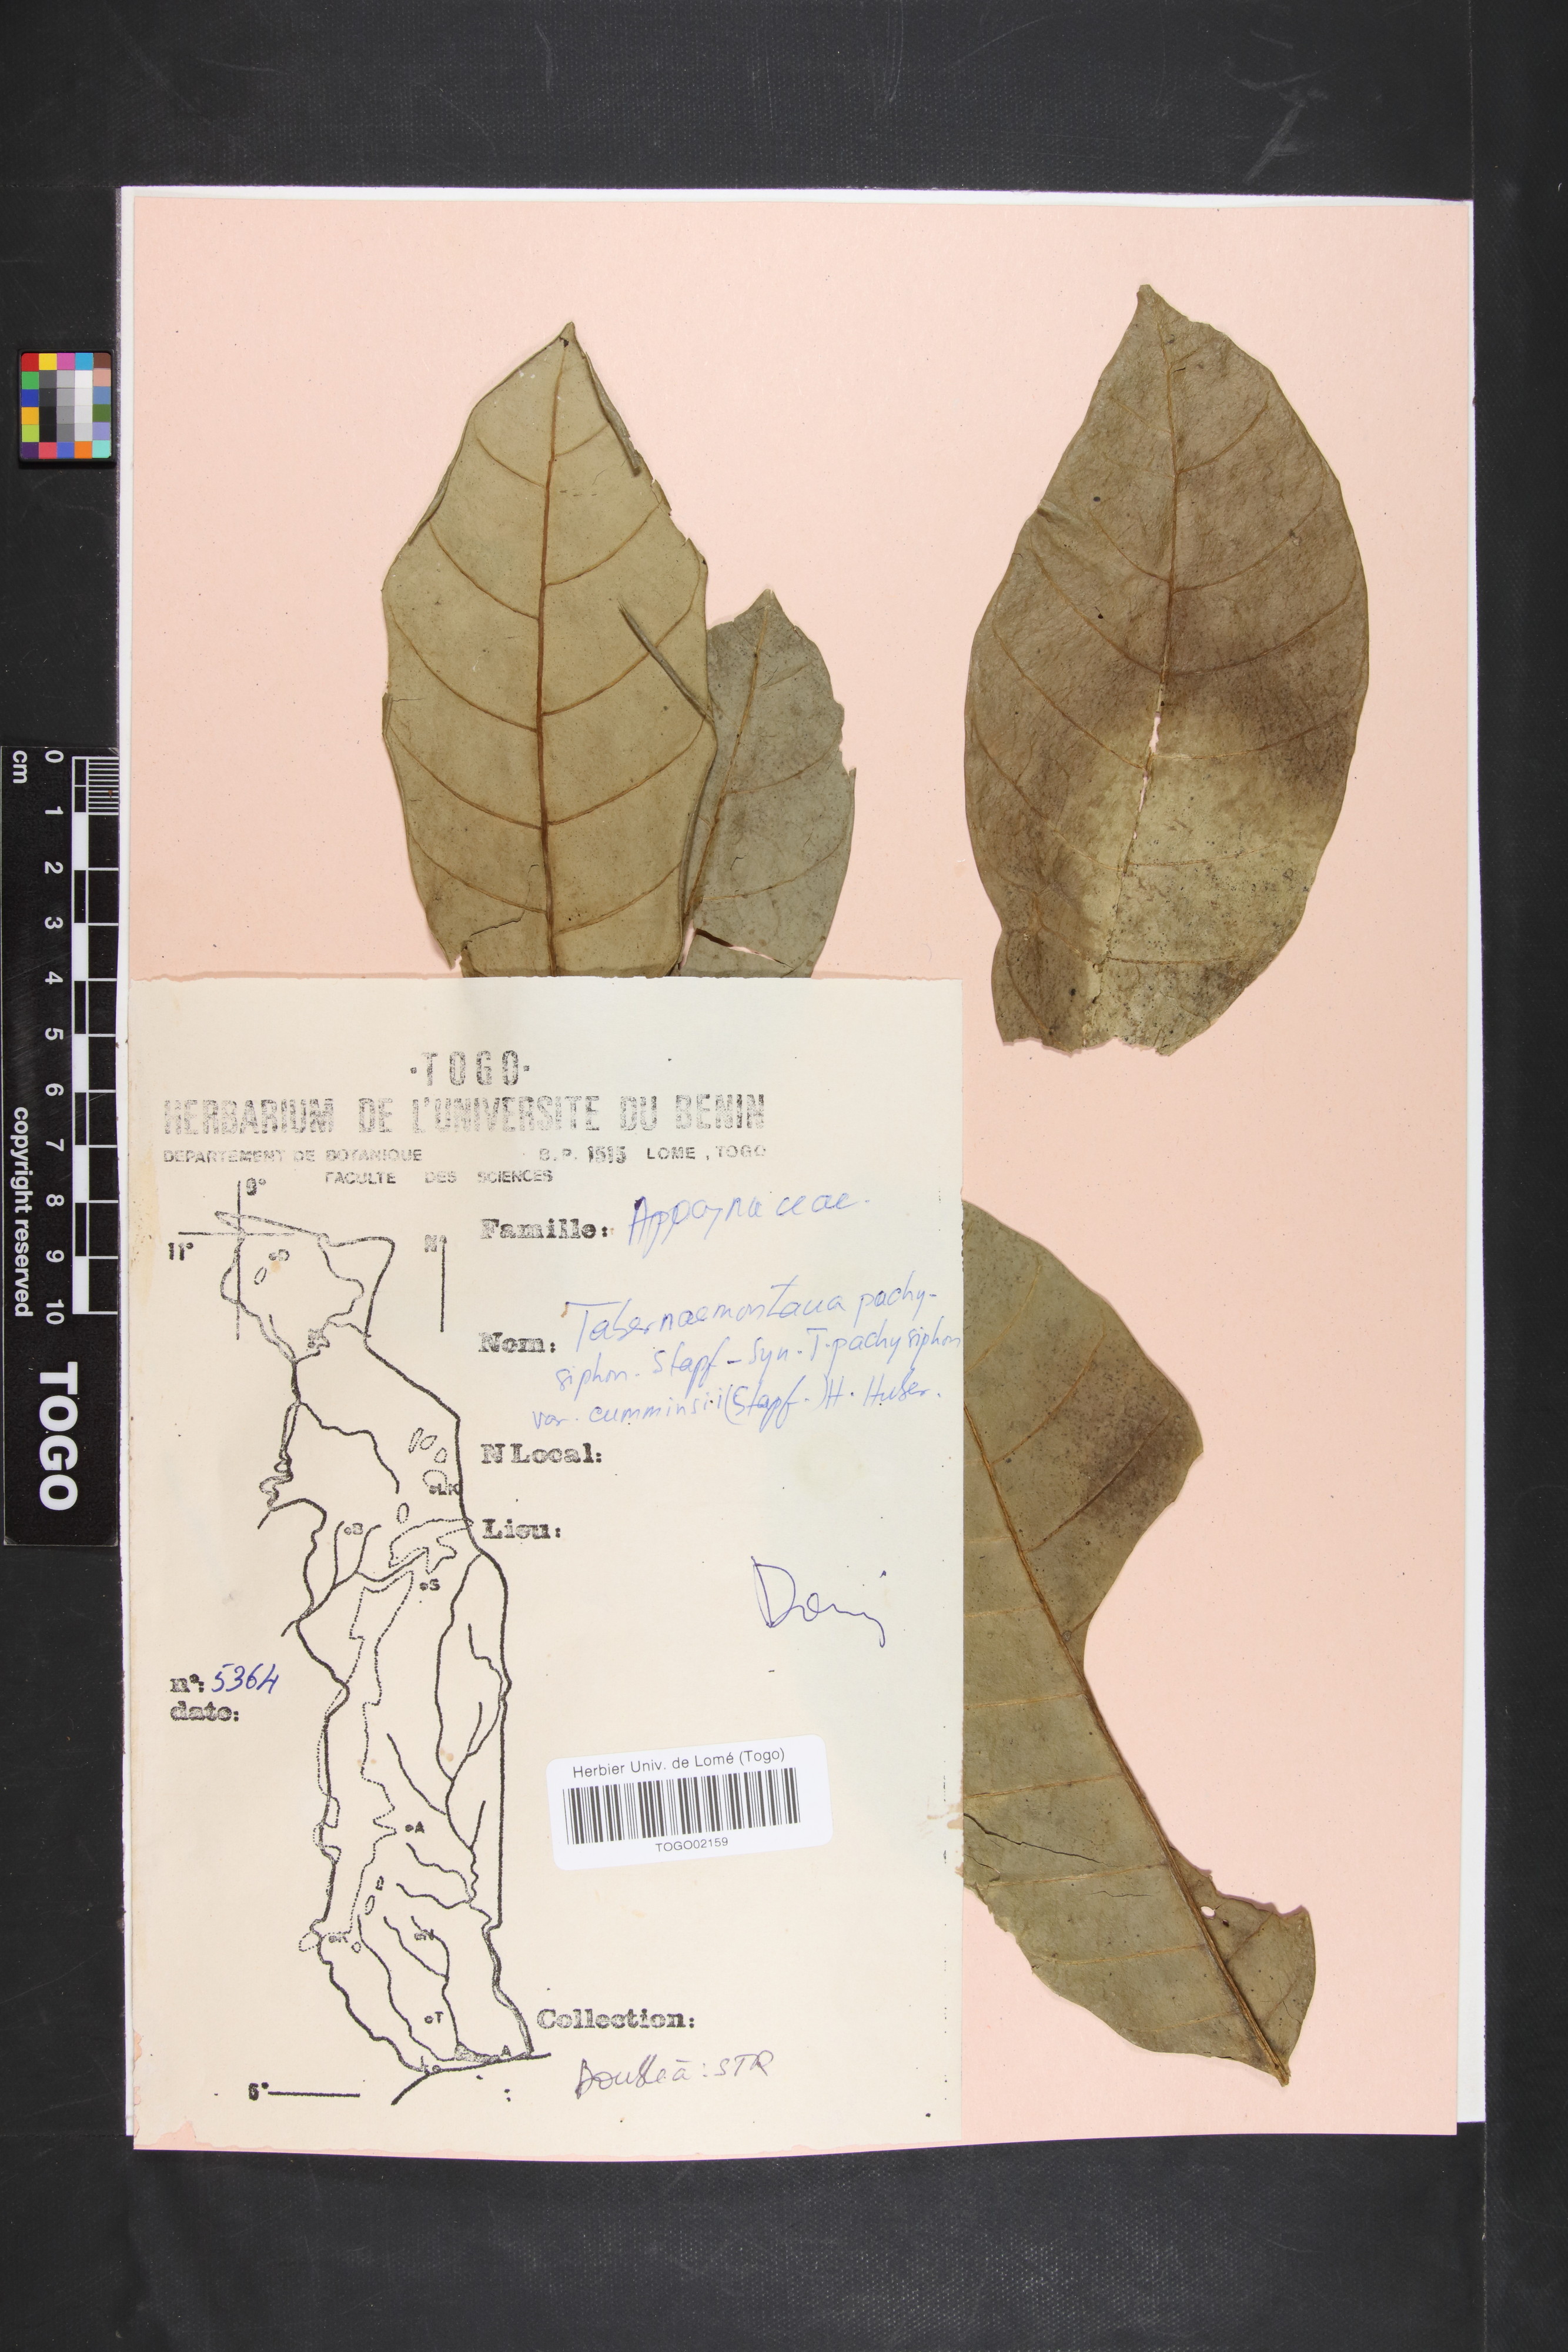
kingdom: Plantae
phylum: Tracheophyta
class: Magnoliopsida
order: Gentianales
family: Apocynaceae
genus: Tabernaemontana
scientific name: Tabernaemontana pachysiphon
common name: Giant pinwheel-flower
